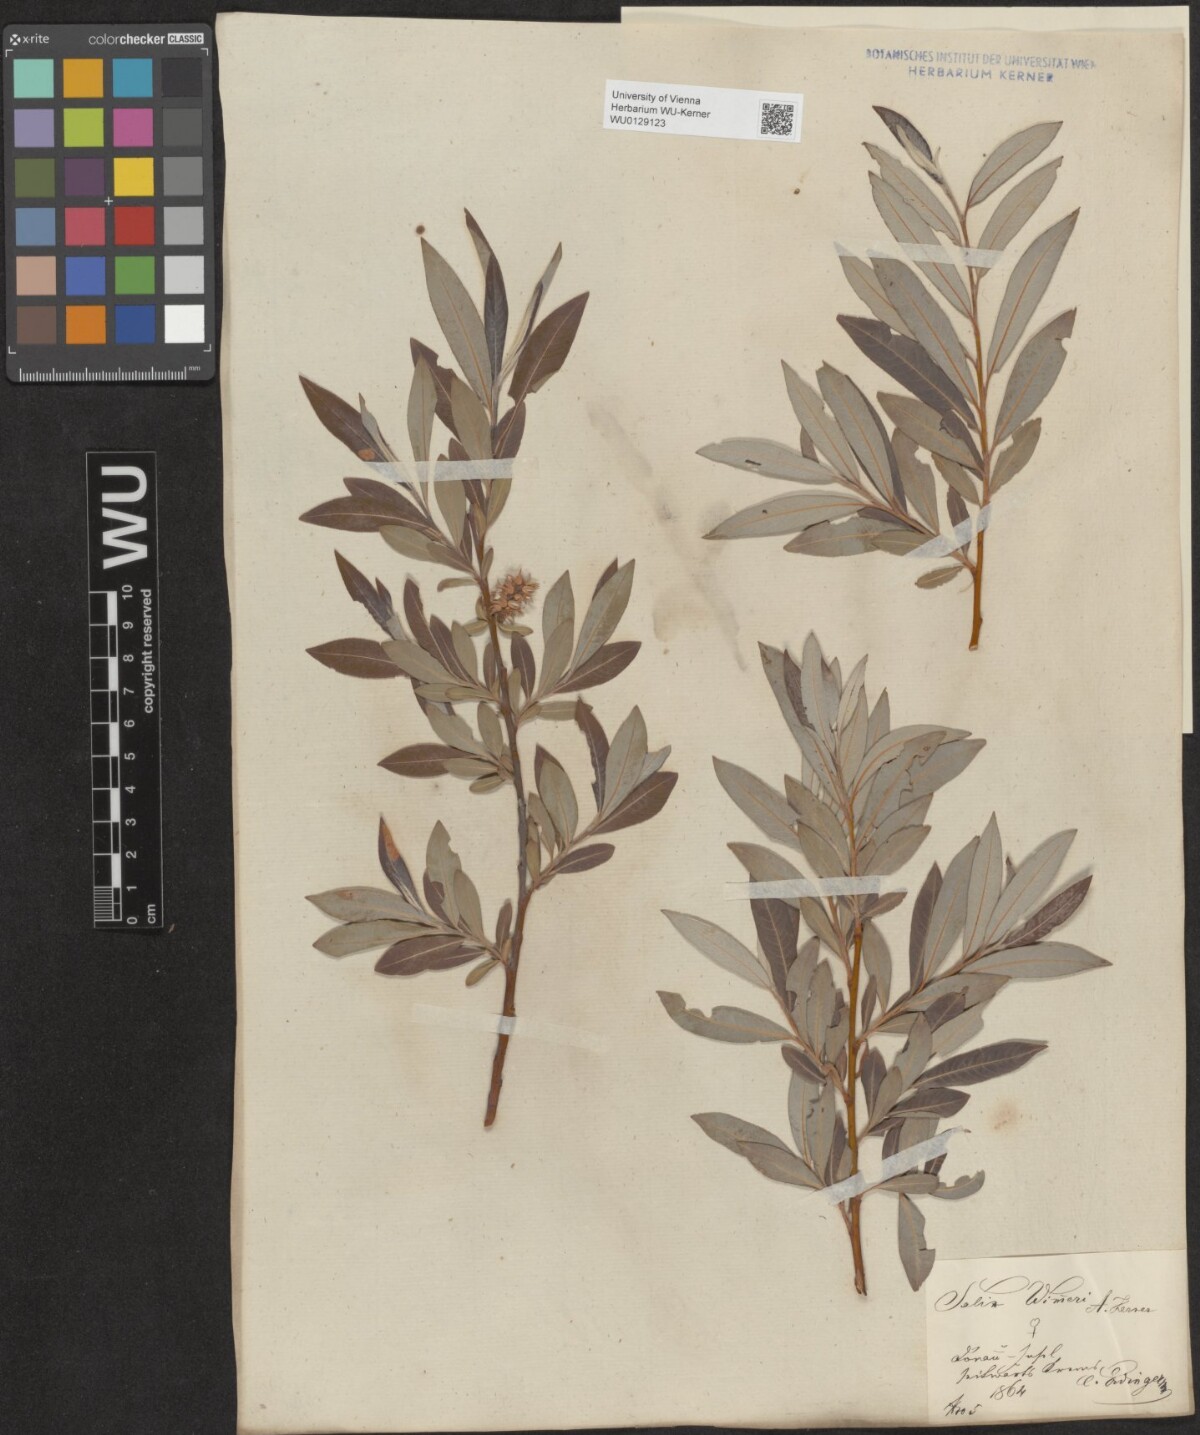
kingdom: Plantae
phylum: Tracheophyta
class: Magnoliopsida
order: Malpighiales
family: Salicaceae
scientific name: Salicaceae
